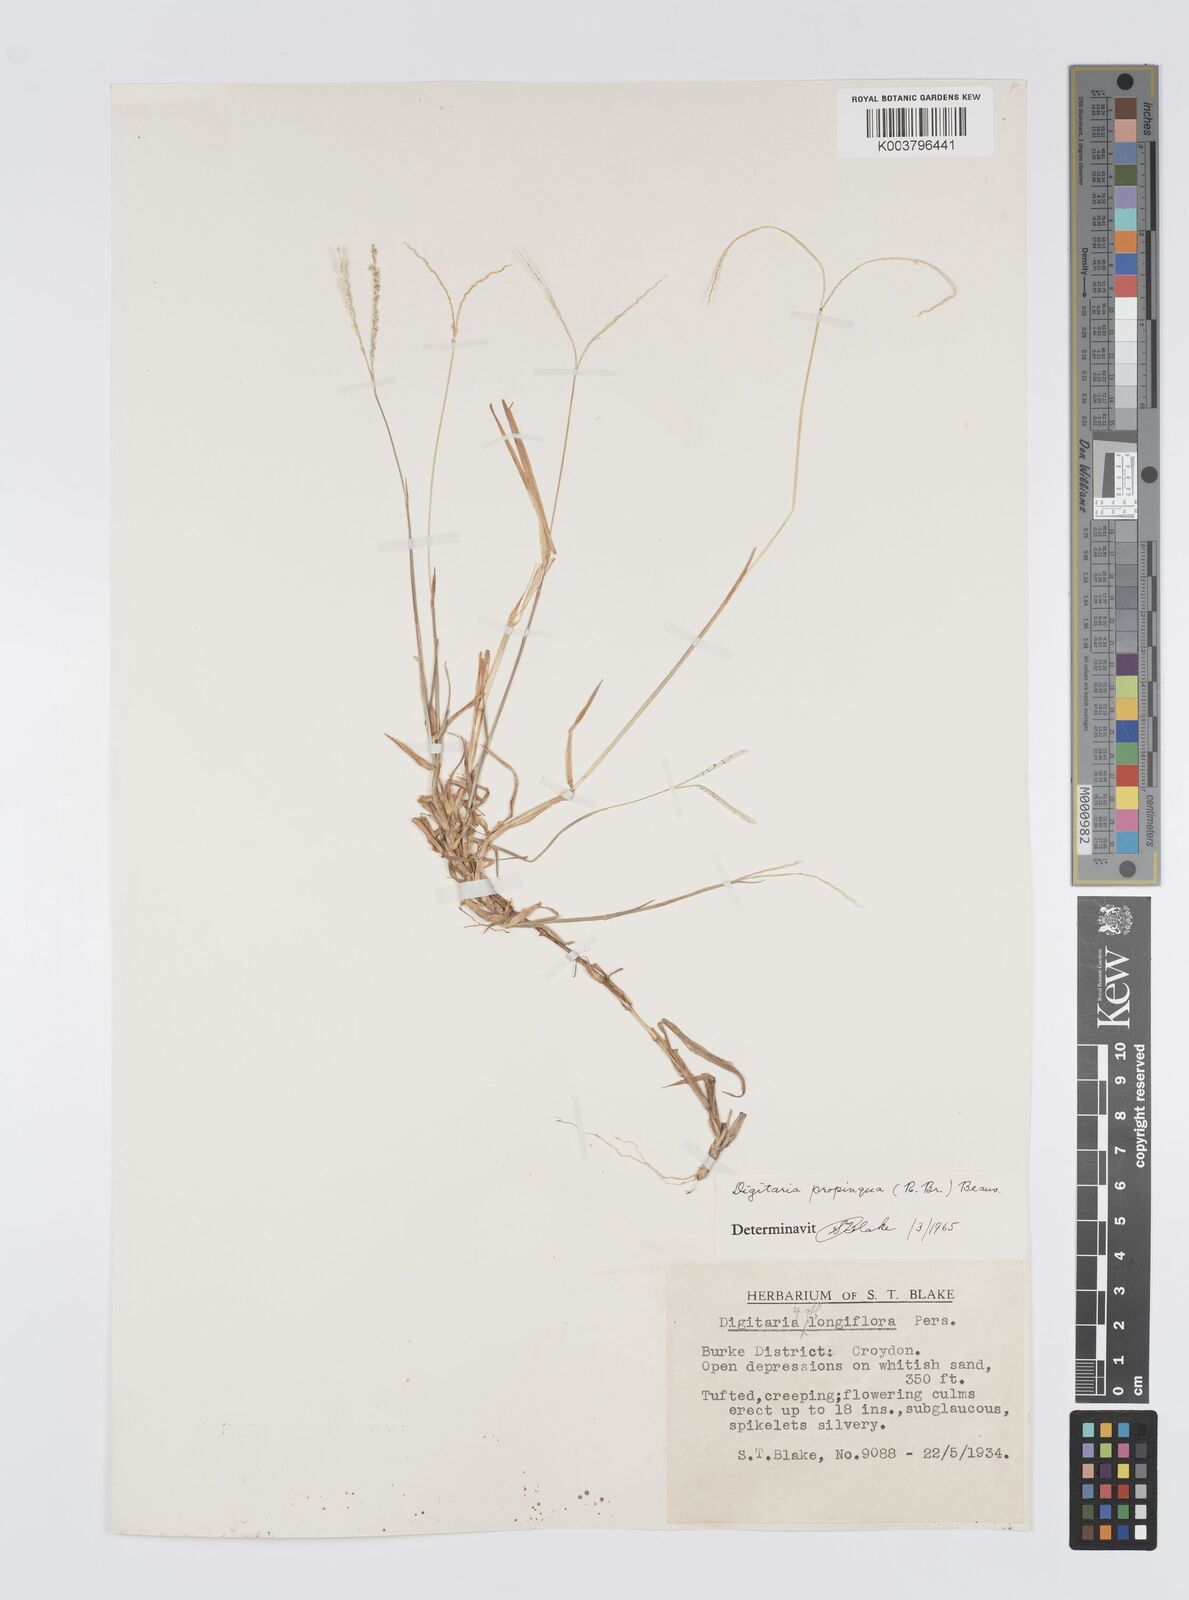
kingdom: Plantae
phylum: Tracheophyta
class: Liliopsida
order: Poales
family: Poaceae
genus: Digitaria
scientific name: Digitaria longiflora
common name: Wire crabgrass
